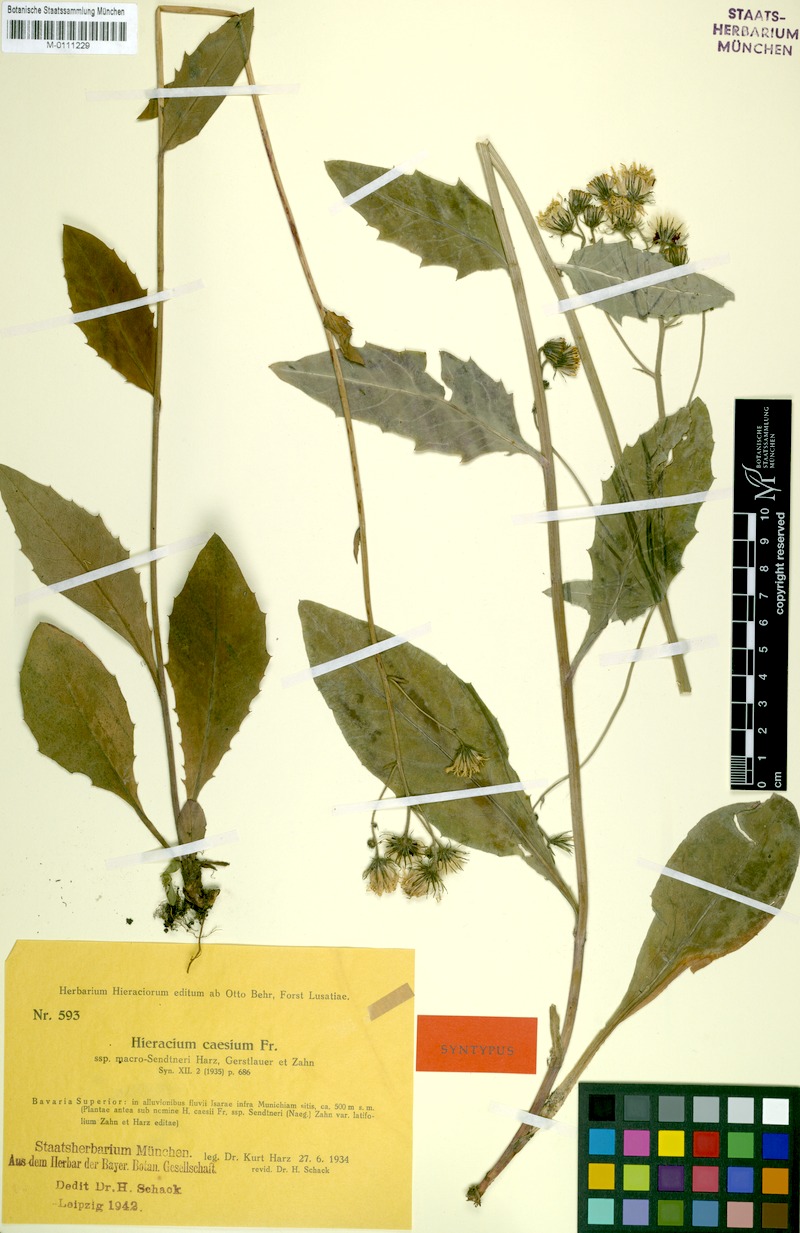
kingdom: Plantae
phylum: Tracheophyta
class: Magnoliopsida
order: Asterales
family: Asteraceae
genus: Hieracium
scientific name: Hieracium caesium
